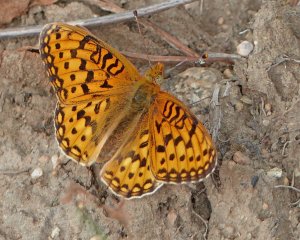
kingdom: Animalia
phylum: Arthropoda
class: Insecta
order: Lepidoptera
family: Nymphalidae
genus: Speyeria
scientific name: Speyeria zerene
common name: Zerene Fritillary
